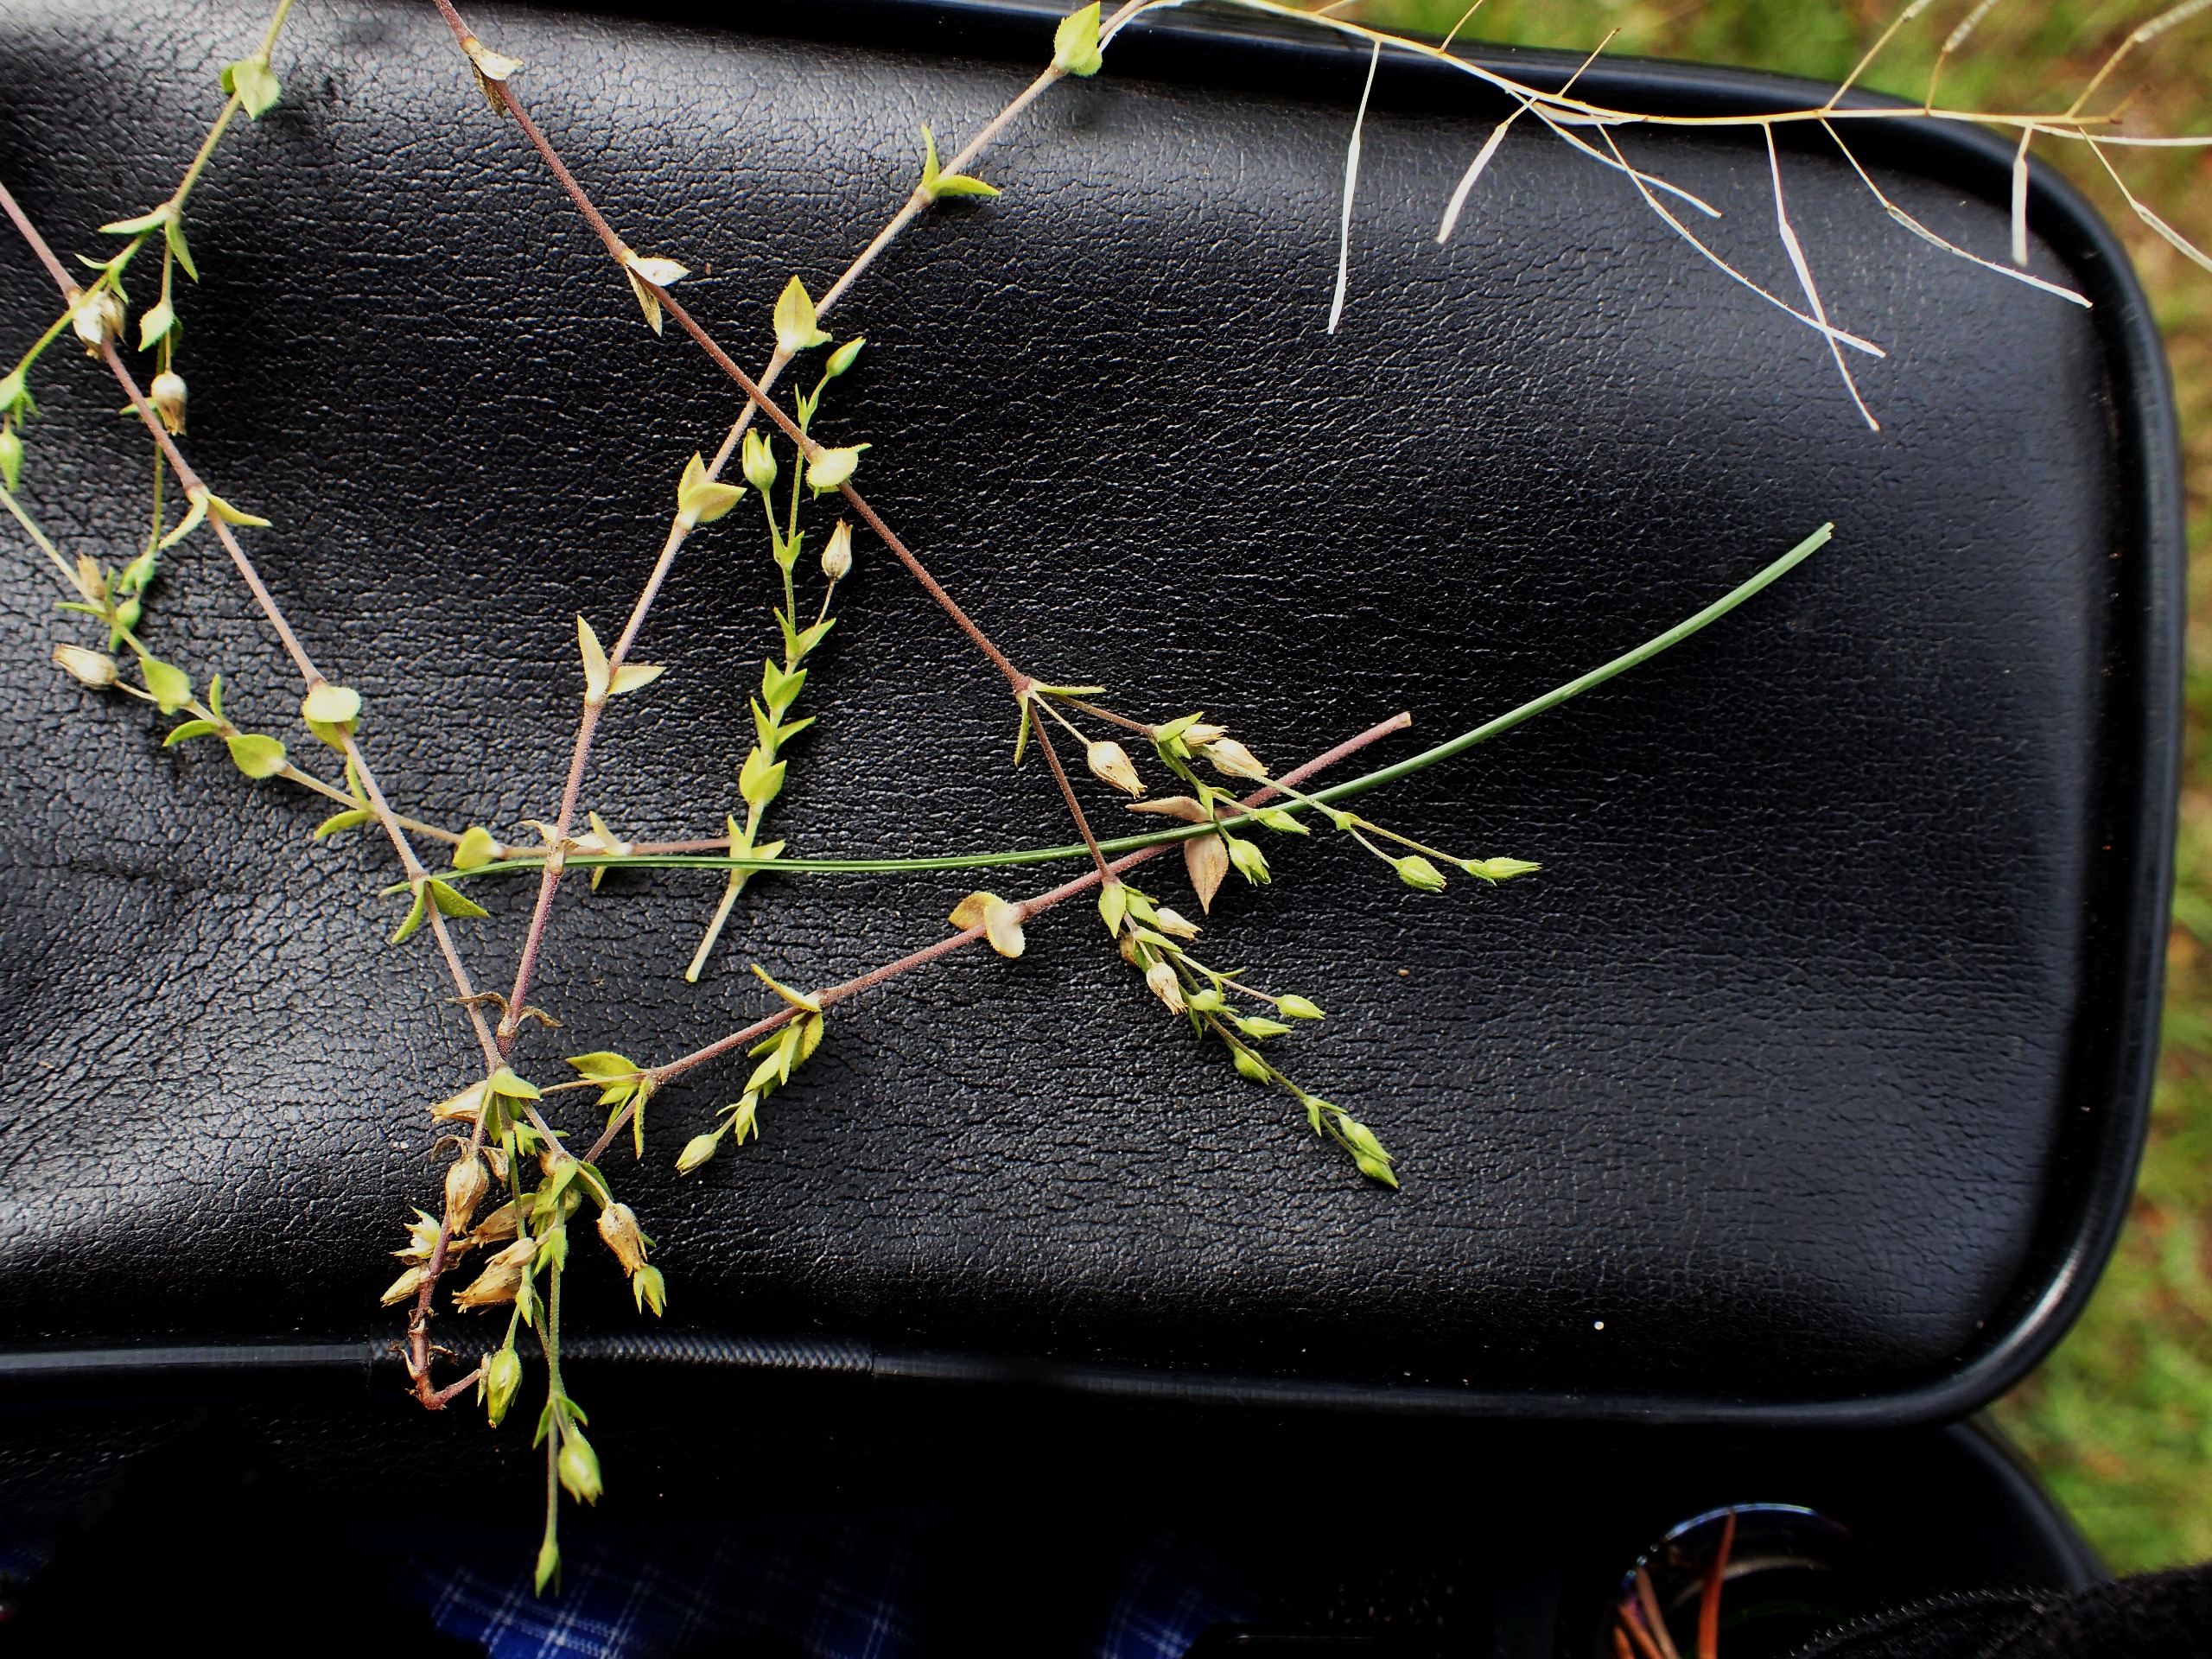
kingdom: Plantae
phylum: Tracheophyta
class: Magnoliopsida
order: Caryophyllales
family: Caryophyllaceae
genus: Arenaria
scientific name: Arenaria serpyllifolia
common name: Almindelig markarve
